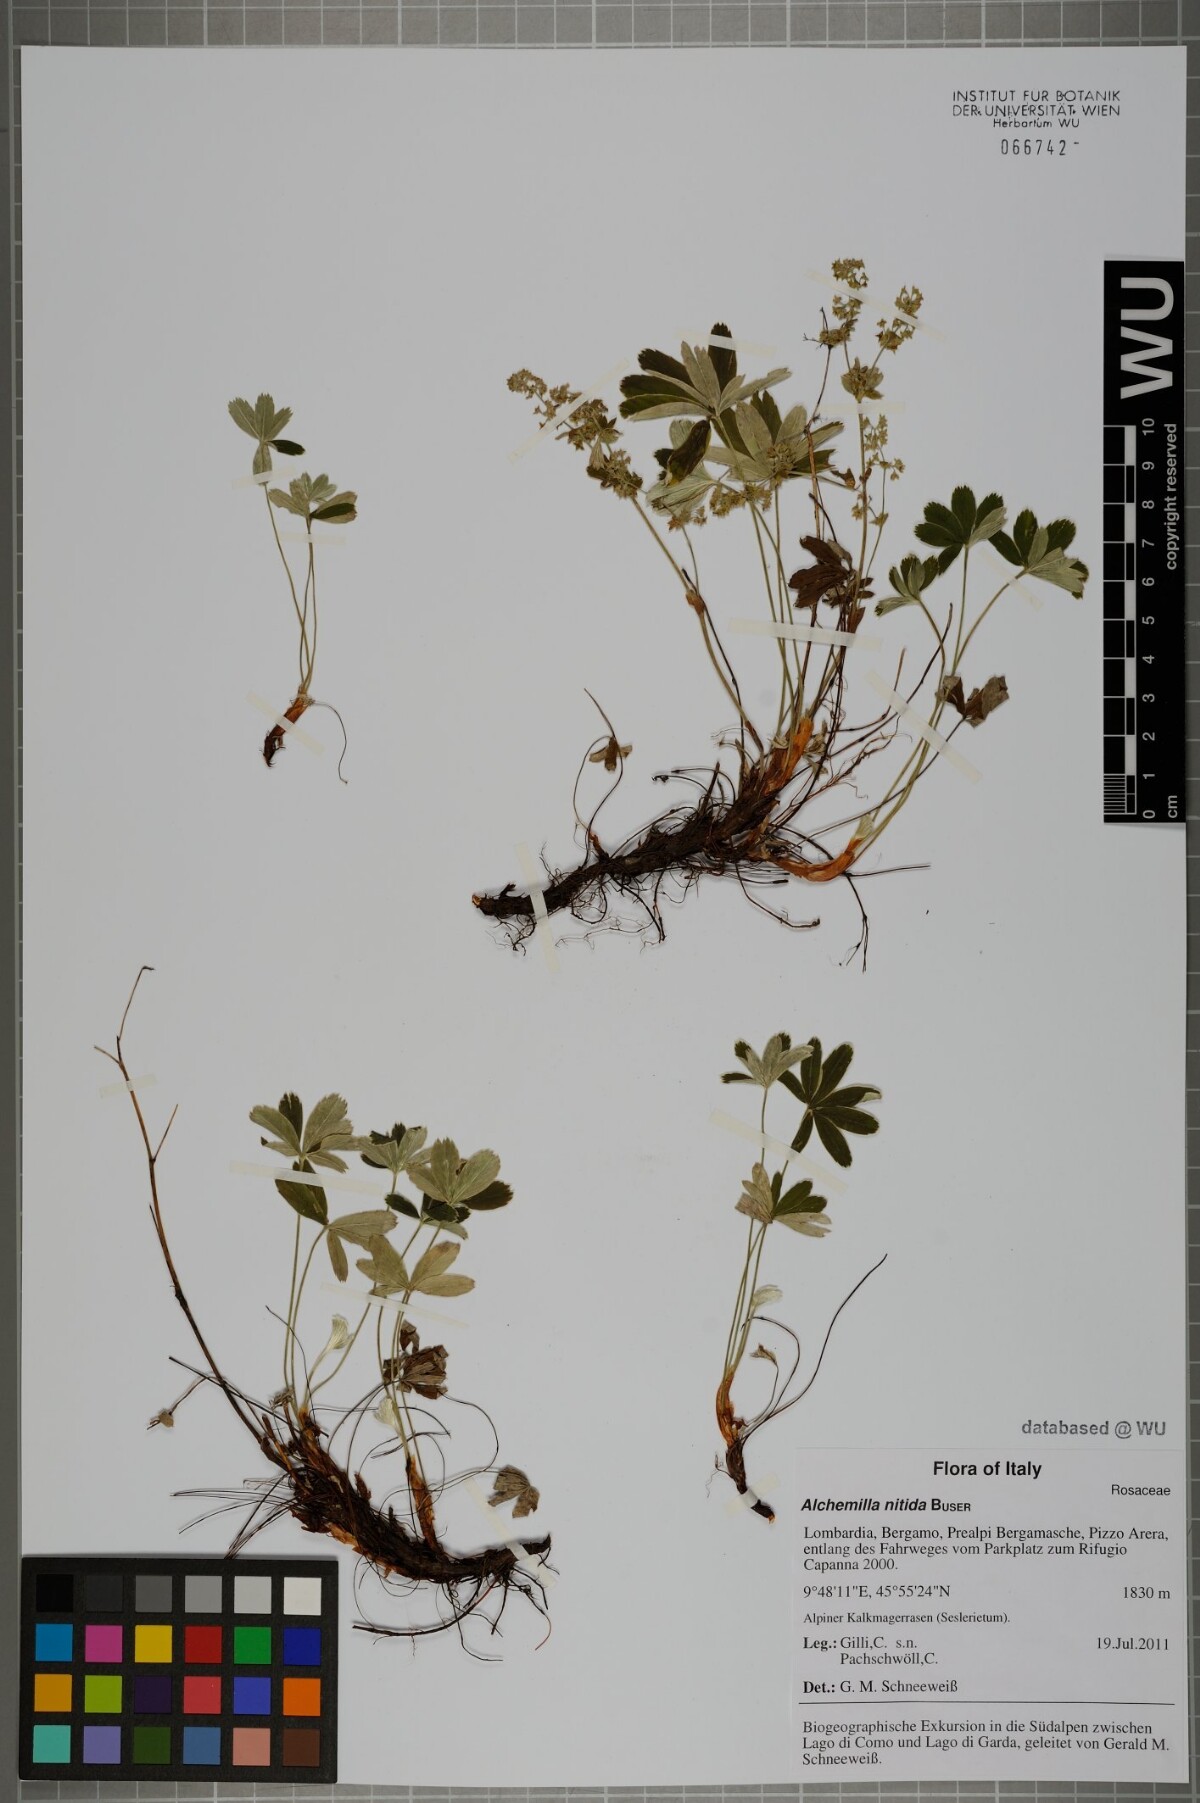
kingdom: Plantae
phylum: Tracheophyta
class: Magnoliopsida
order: Rosales
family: Rosaceae
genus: Alchemilla
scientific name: Alchemilla nitida
